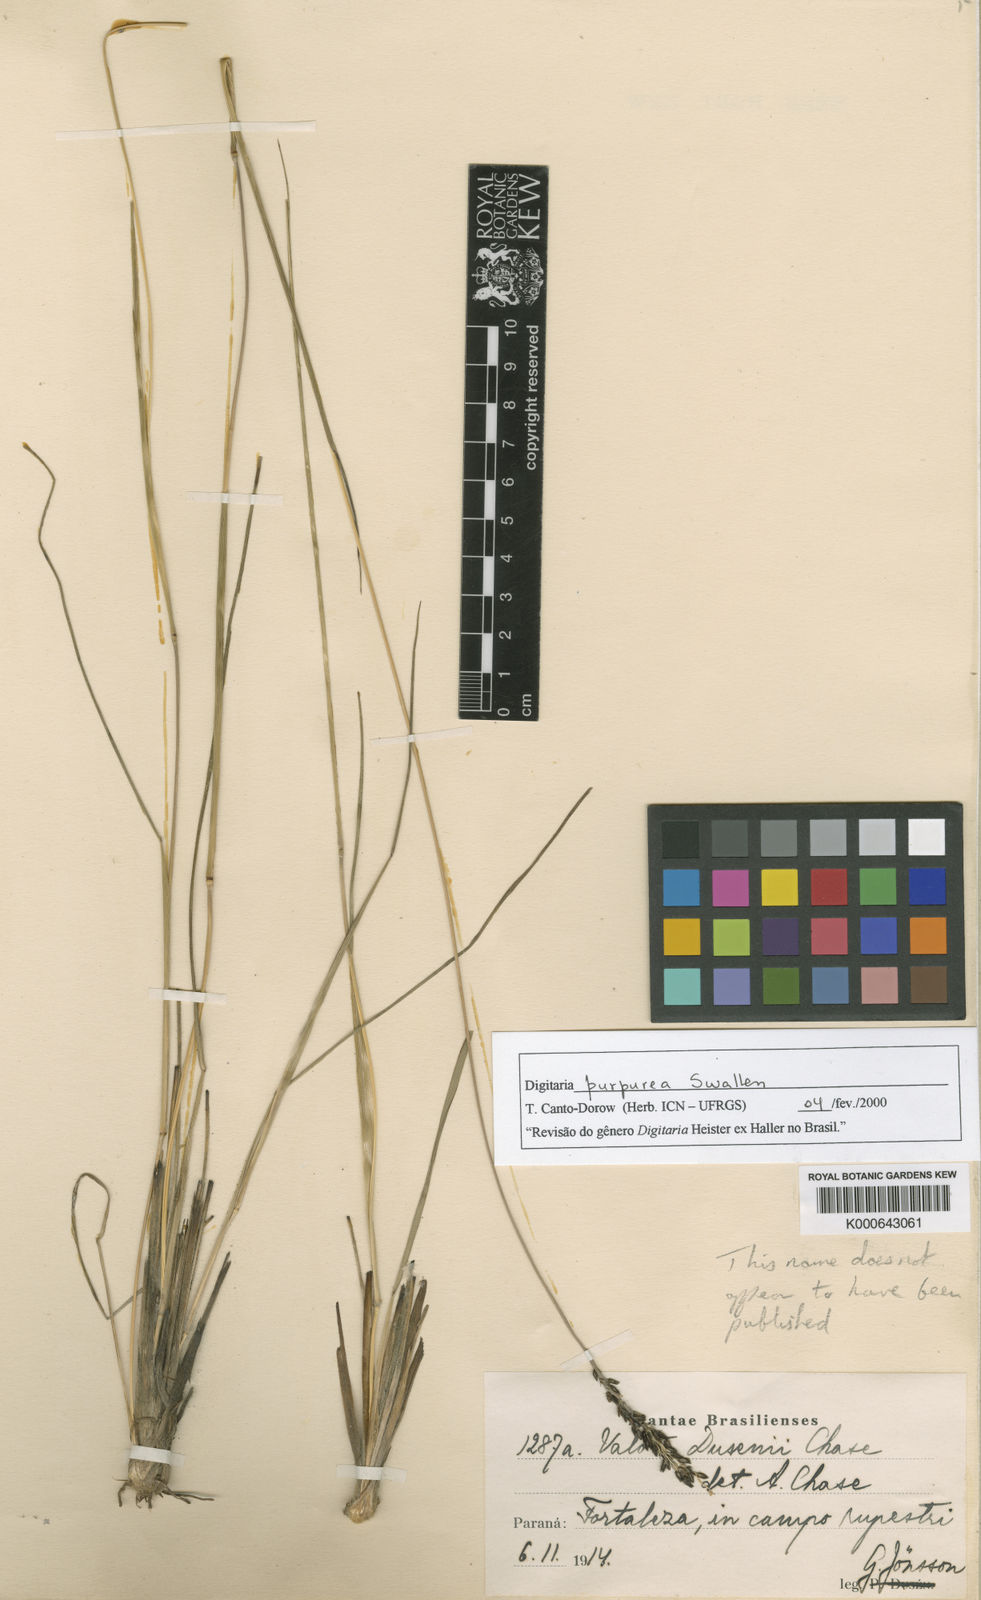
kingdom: Plantae
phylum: Tracheophyta
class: Liliopsida
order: Poales
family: Poaceae
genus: Digitaria
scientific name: Digitaria purpurea
